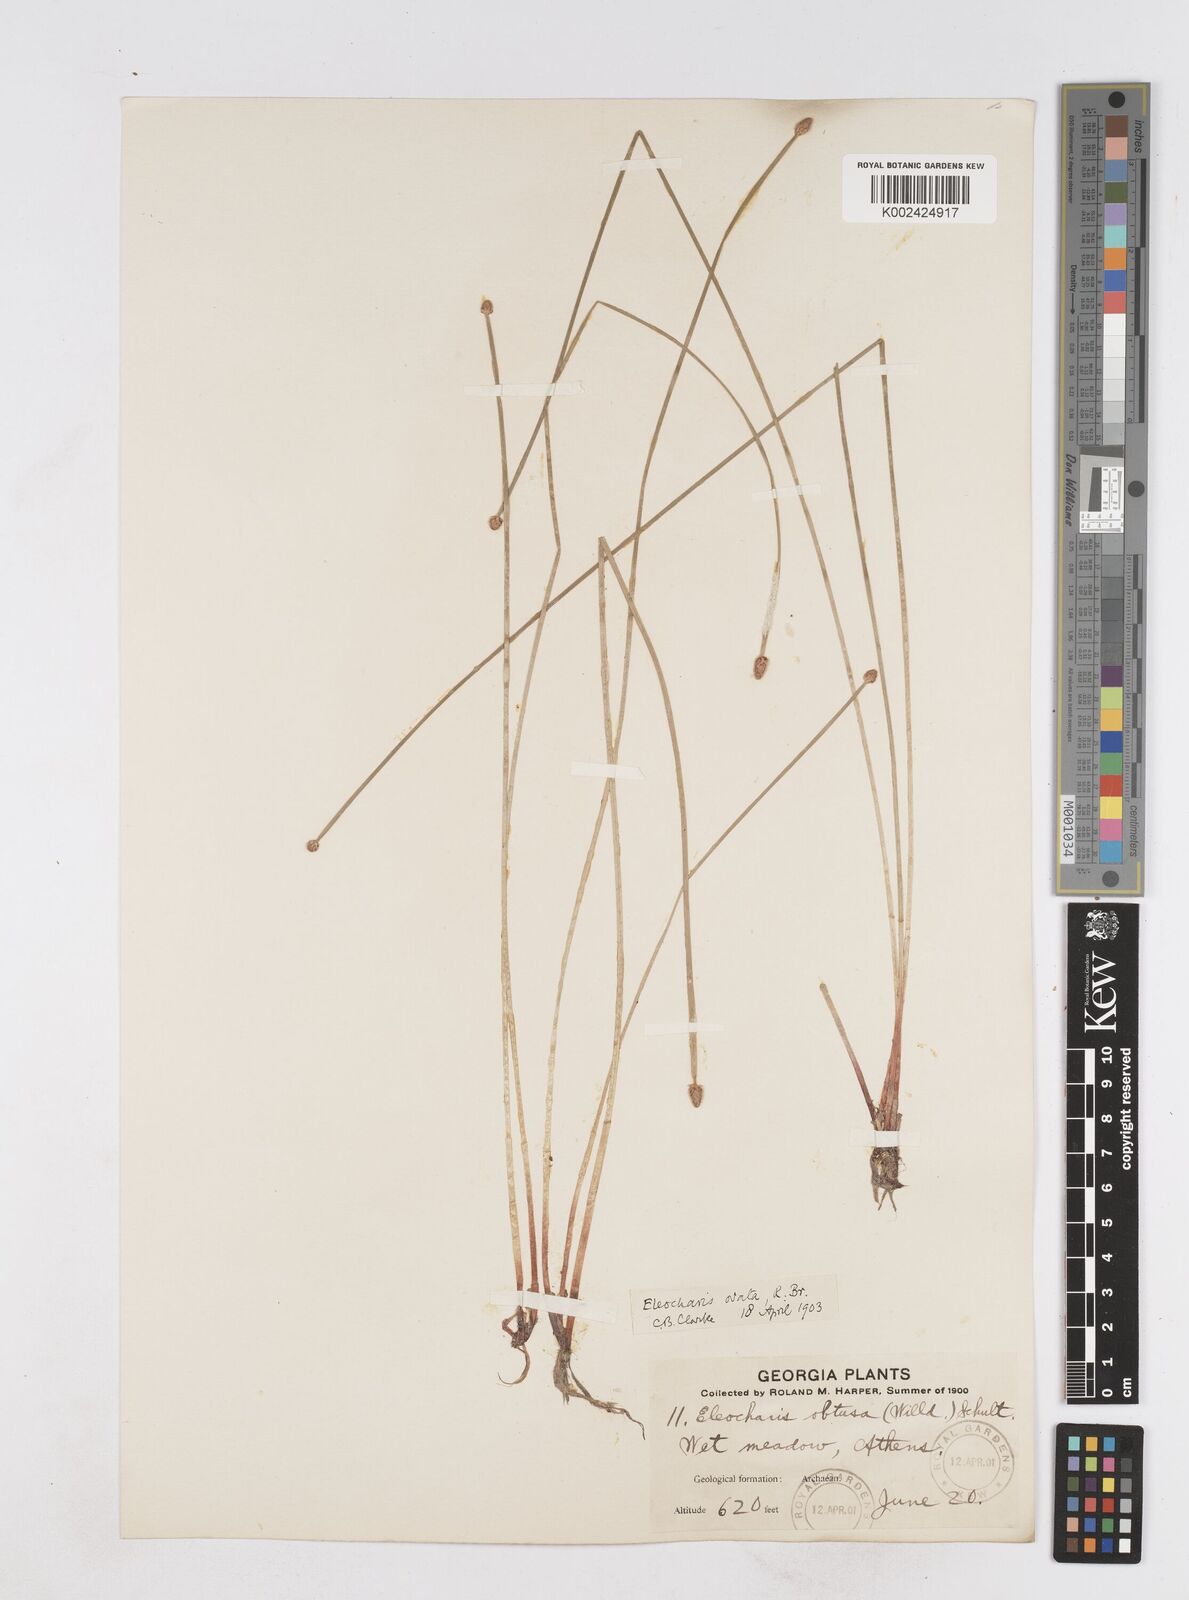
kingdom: Plantae
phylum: Tracheophyta
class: Liliopsida
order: Poales
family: Cyperaceae
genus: Eleocharis
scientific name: Eleocharis ovata
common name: Oval spike-rush
